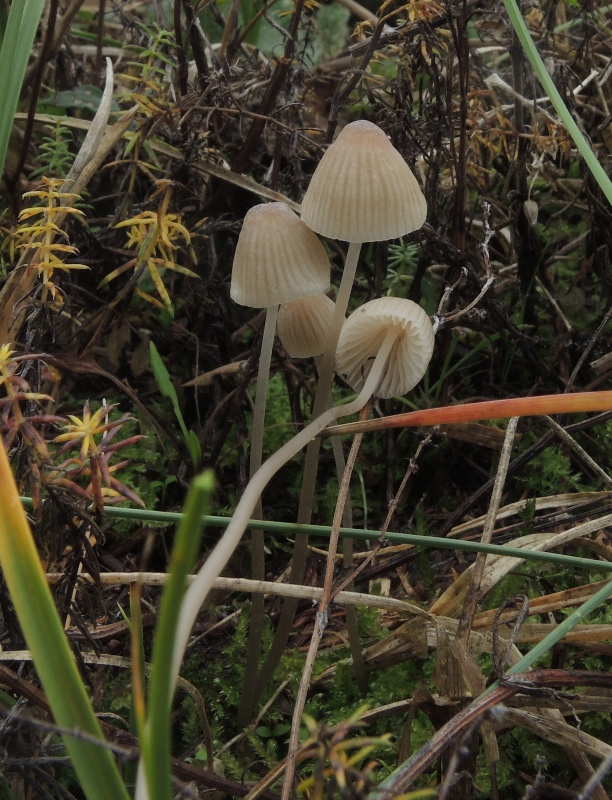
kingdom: Fungi
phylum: Basidiomycota
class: Agaricomycetes
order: Agaricales
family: Mycenaceae
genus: Mycena
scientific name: Mycena metata
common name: rødlig huesvamp
